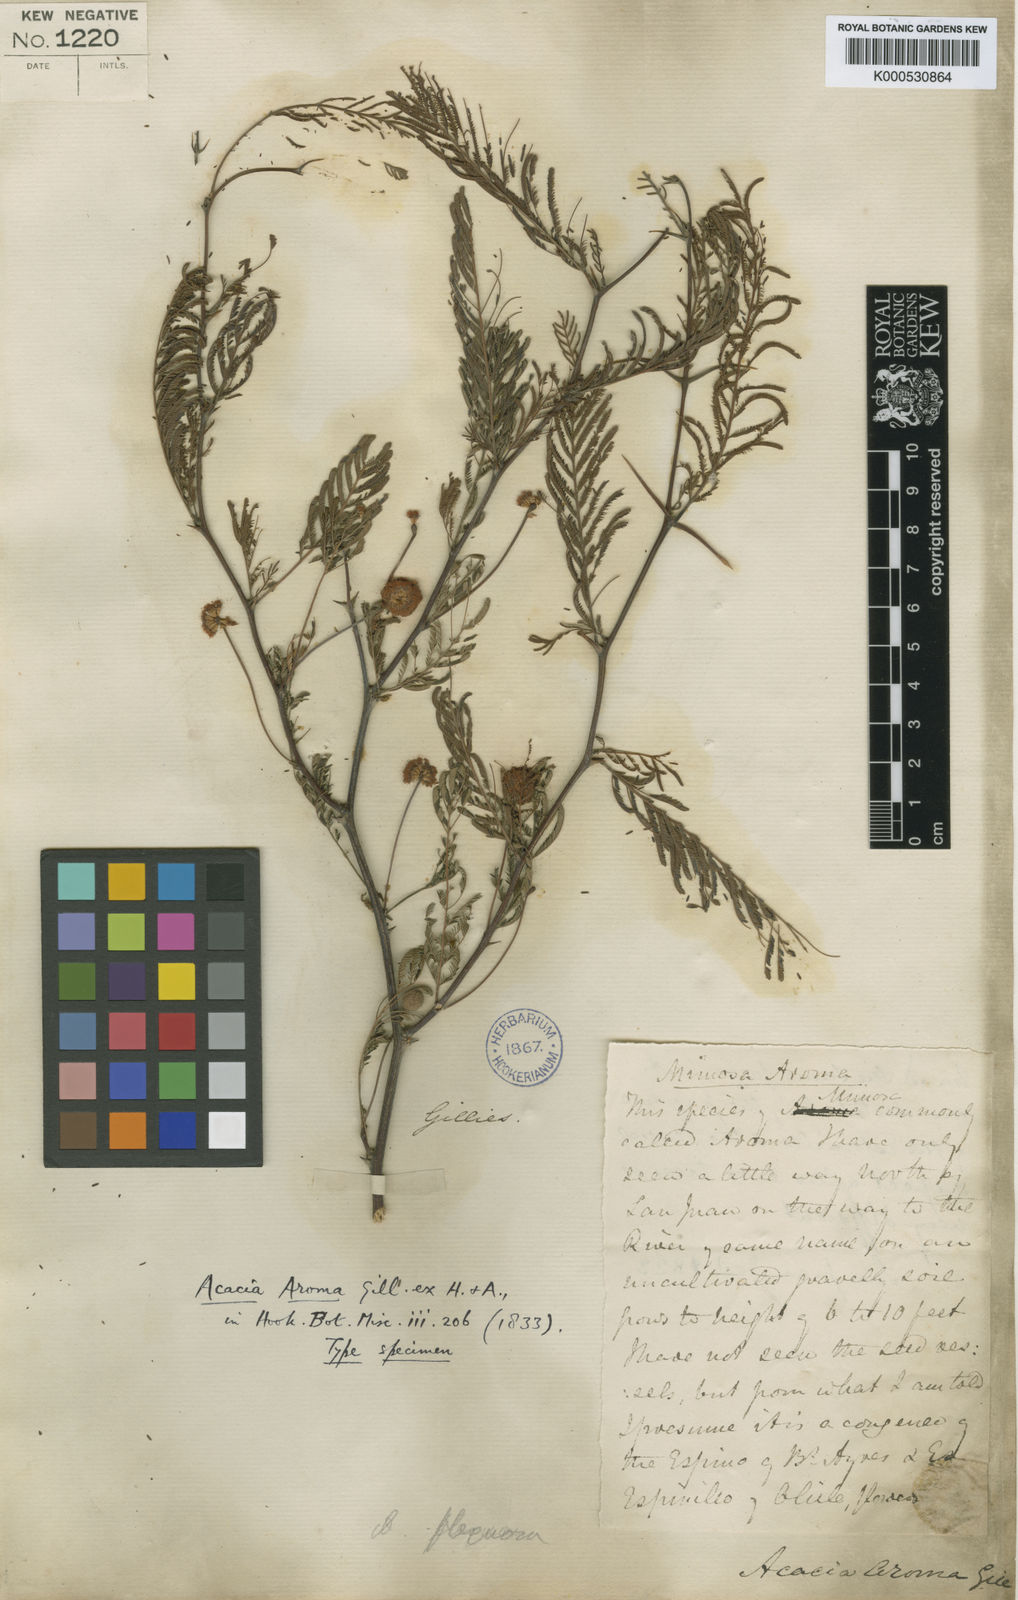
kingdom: Plantae
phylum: Tracheophyta
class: Magnoliopsida
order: Fabales
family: Fabaceae
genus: Vachellia
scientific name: Vachellia macracantha
